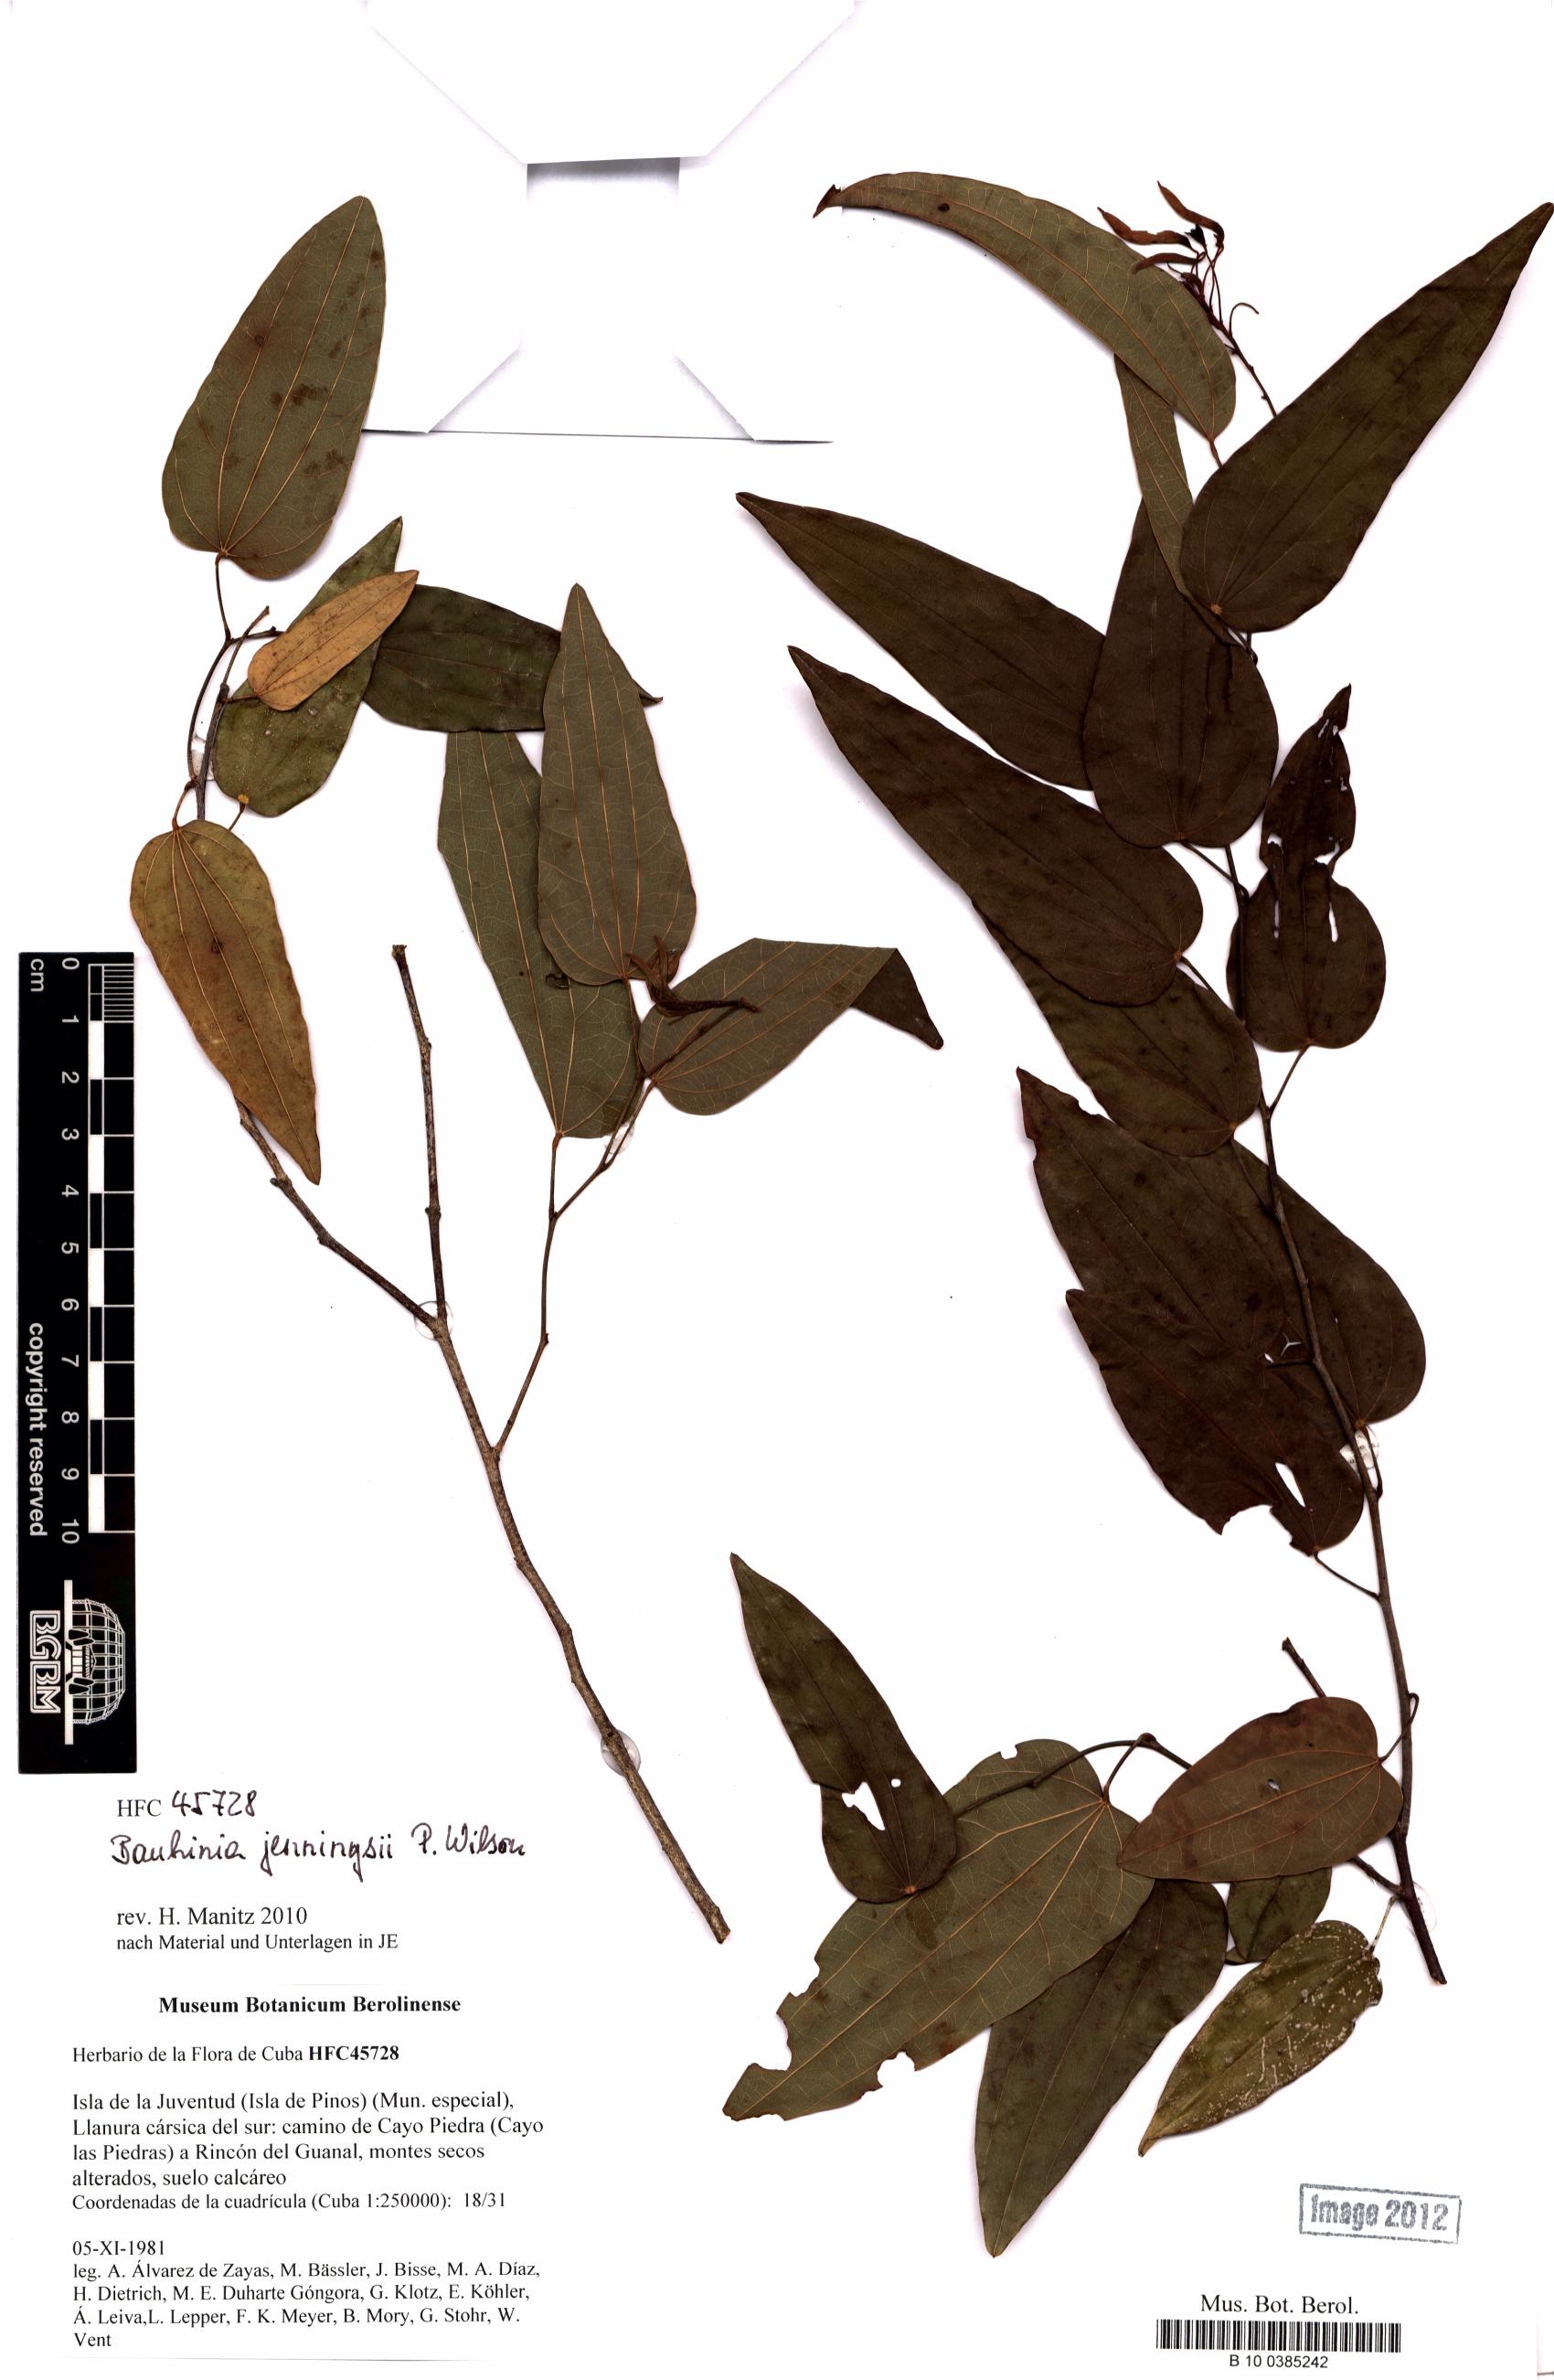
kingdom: Plantae
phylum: Tracheophyta
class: Magnoliopsida
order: Fabales
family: Fabaceae
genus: Bauhinia
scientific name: Bauhinia jenningsii
